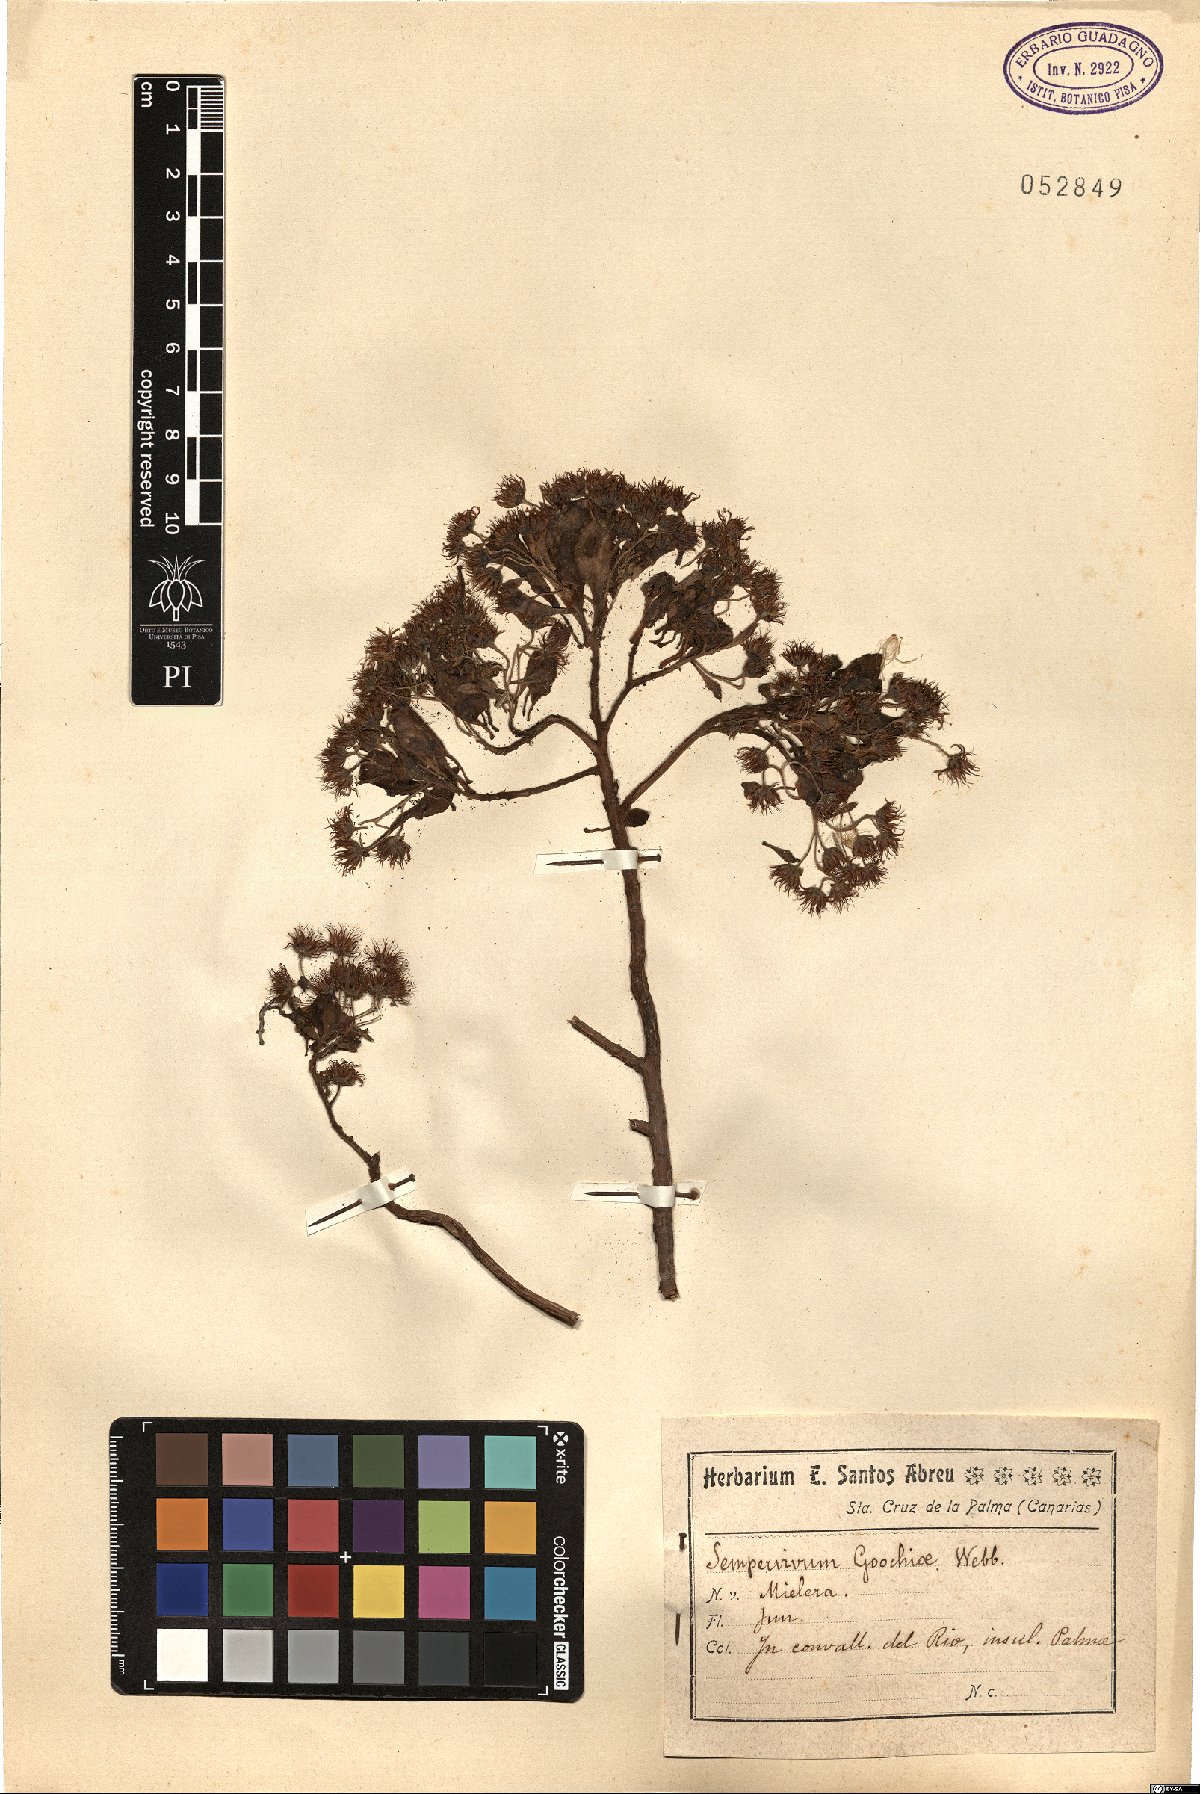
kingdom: Plantae
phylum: Tracheophyta
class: Magnoliopsida
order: Saxifragales
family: Crassulaceae
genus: Aeonium
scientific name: Aeonium goochiae
